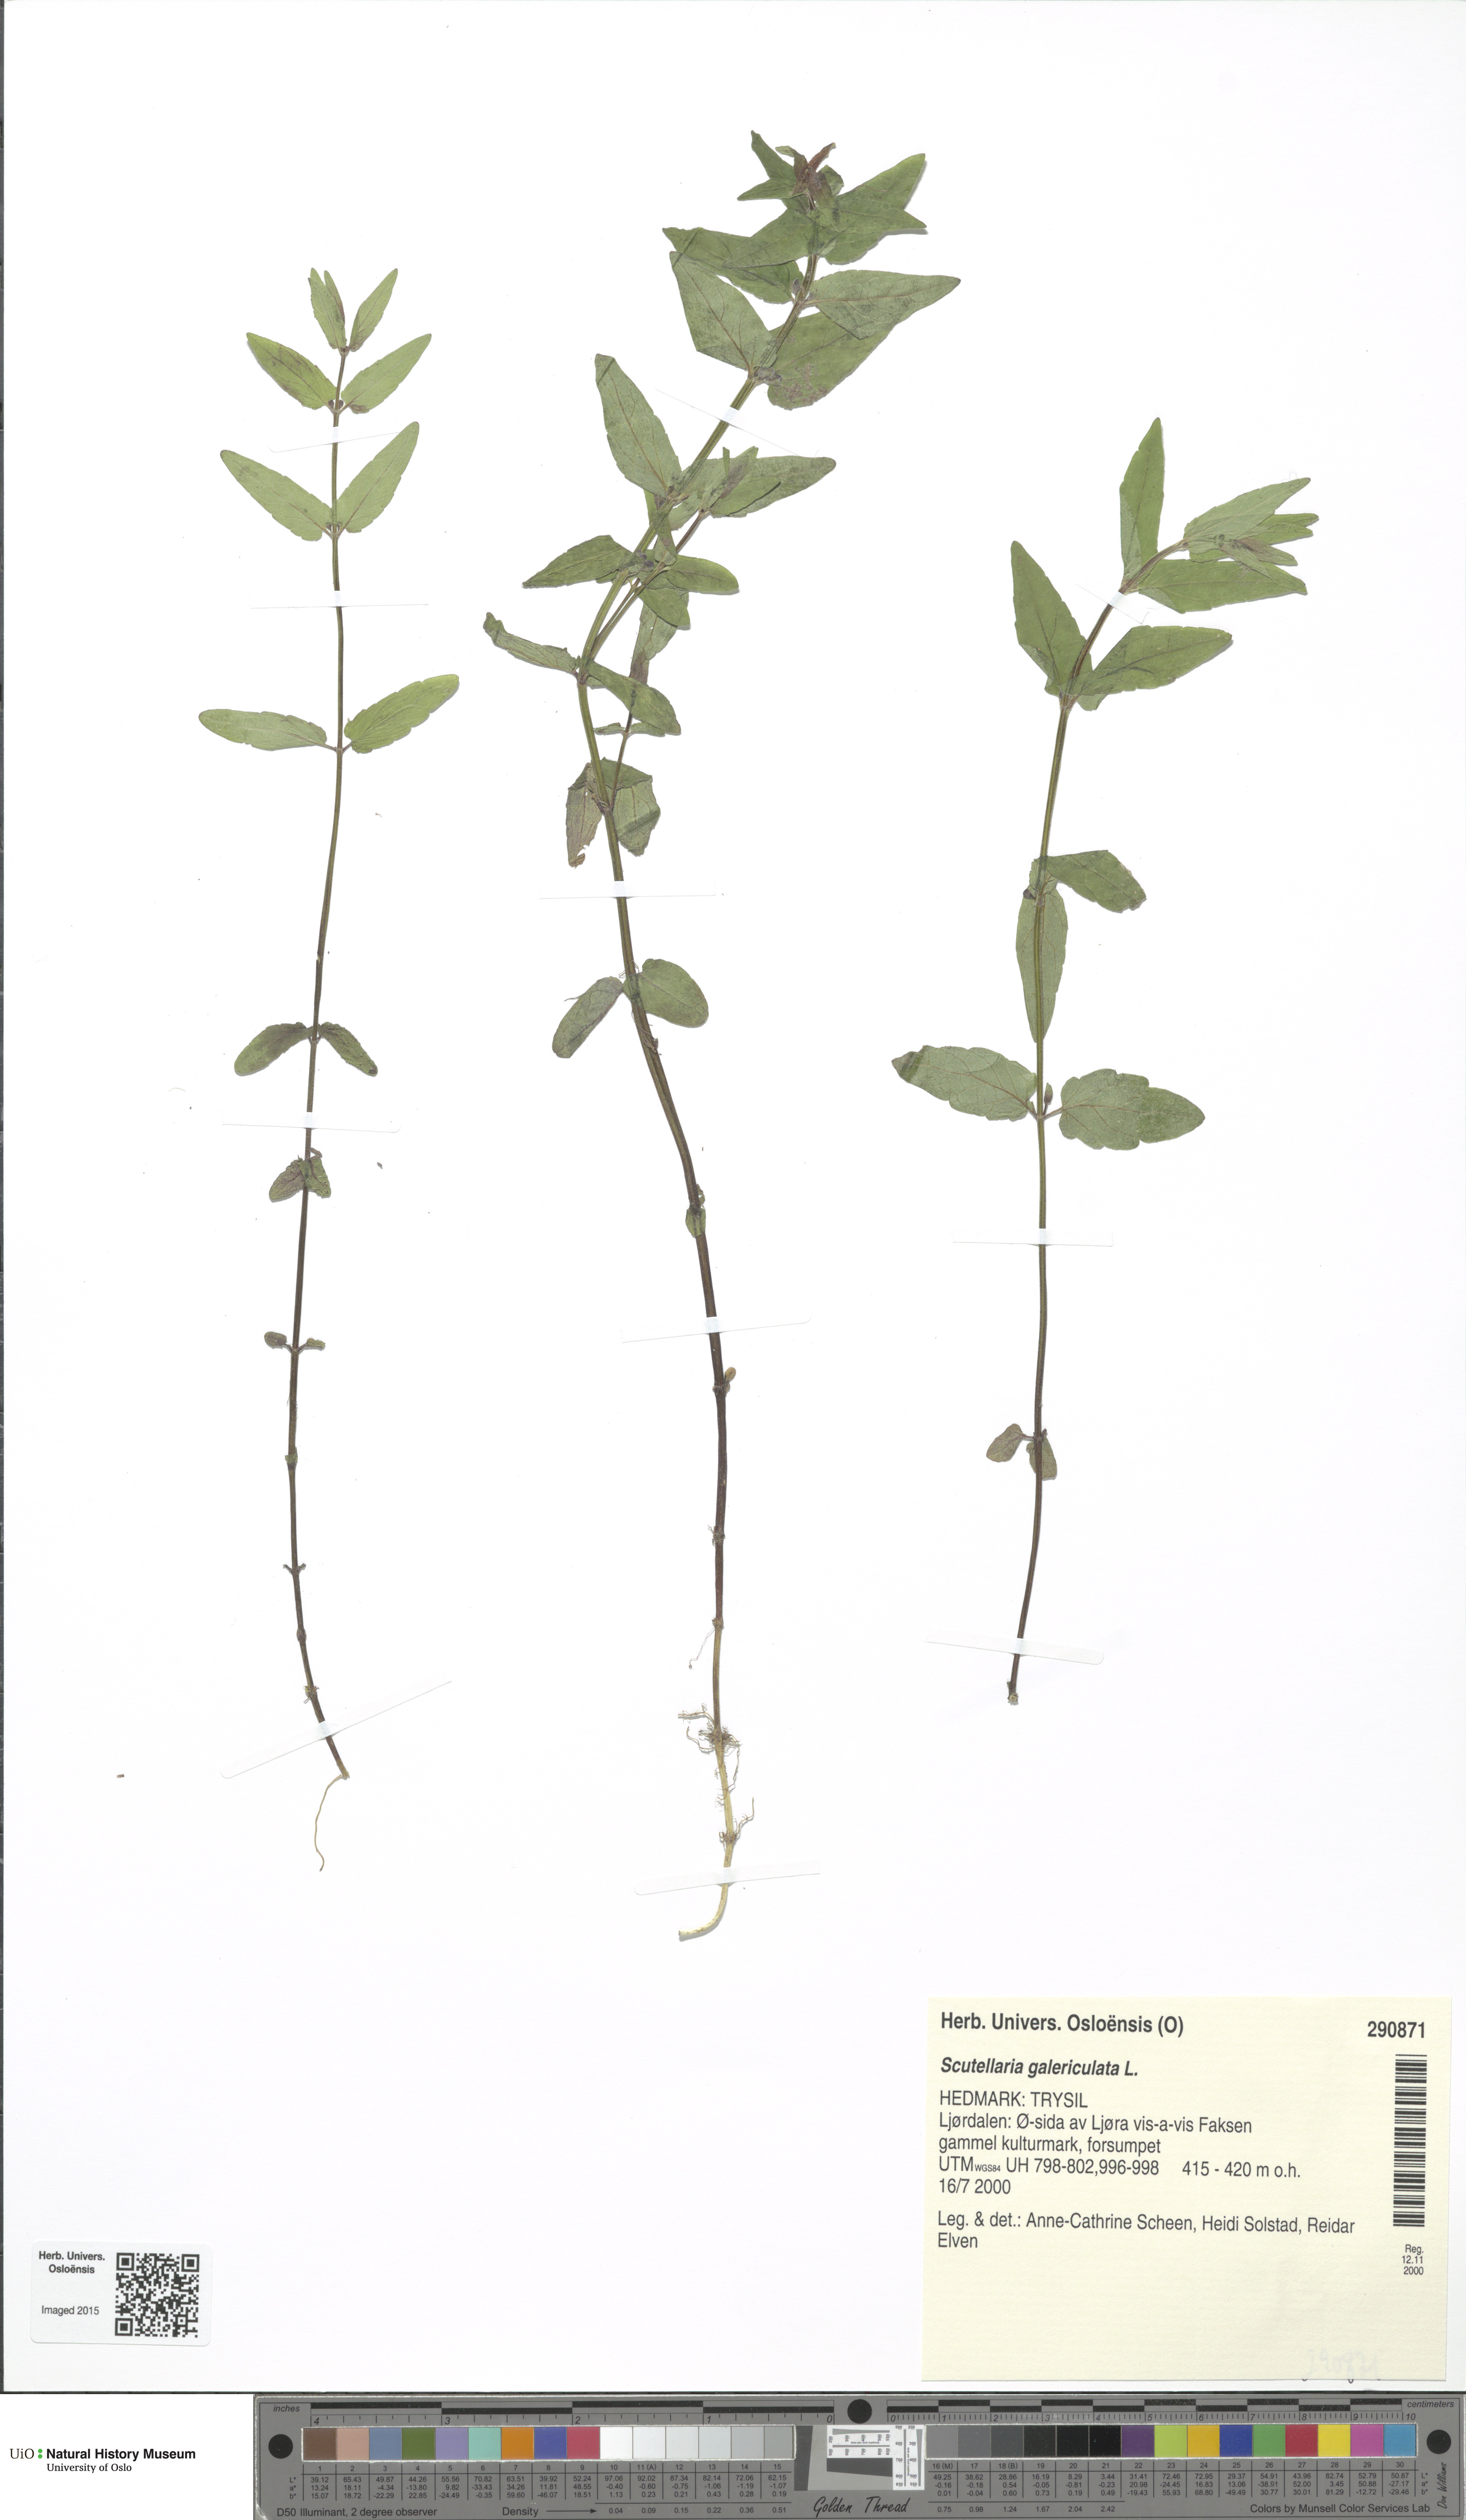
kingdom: Plantae
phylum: Tracheophyta
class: Magnoliopsida
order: Lamiales
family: Lamiaceae
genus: Scutellaria
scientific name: Scutellaria galericulata
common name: Skullcap
